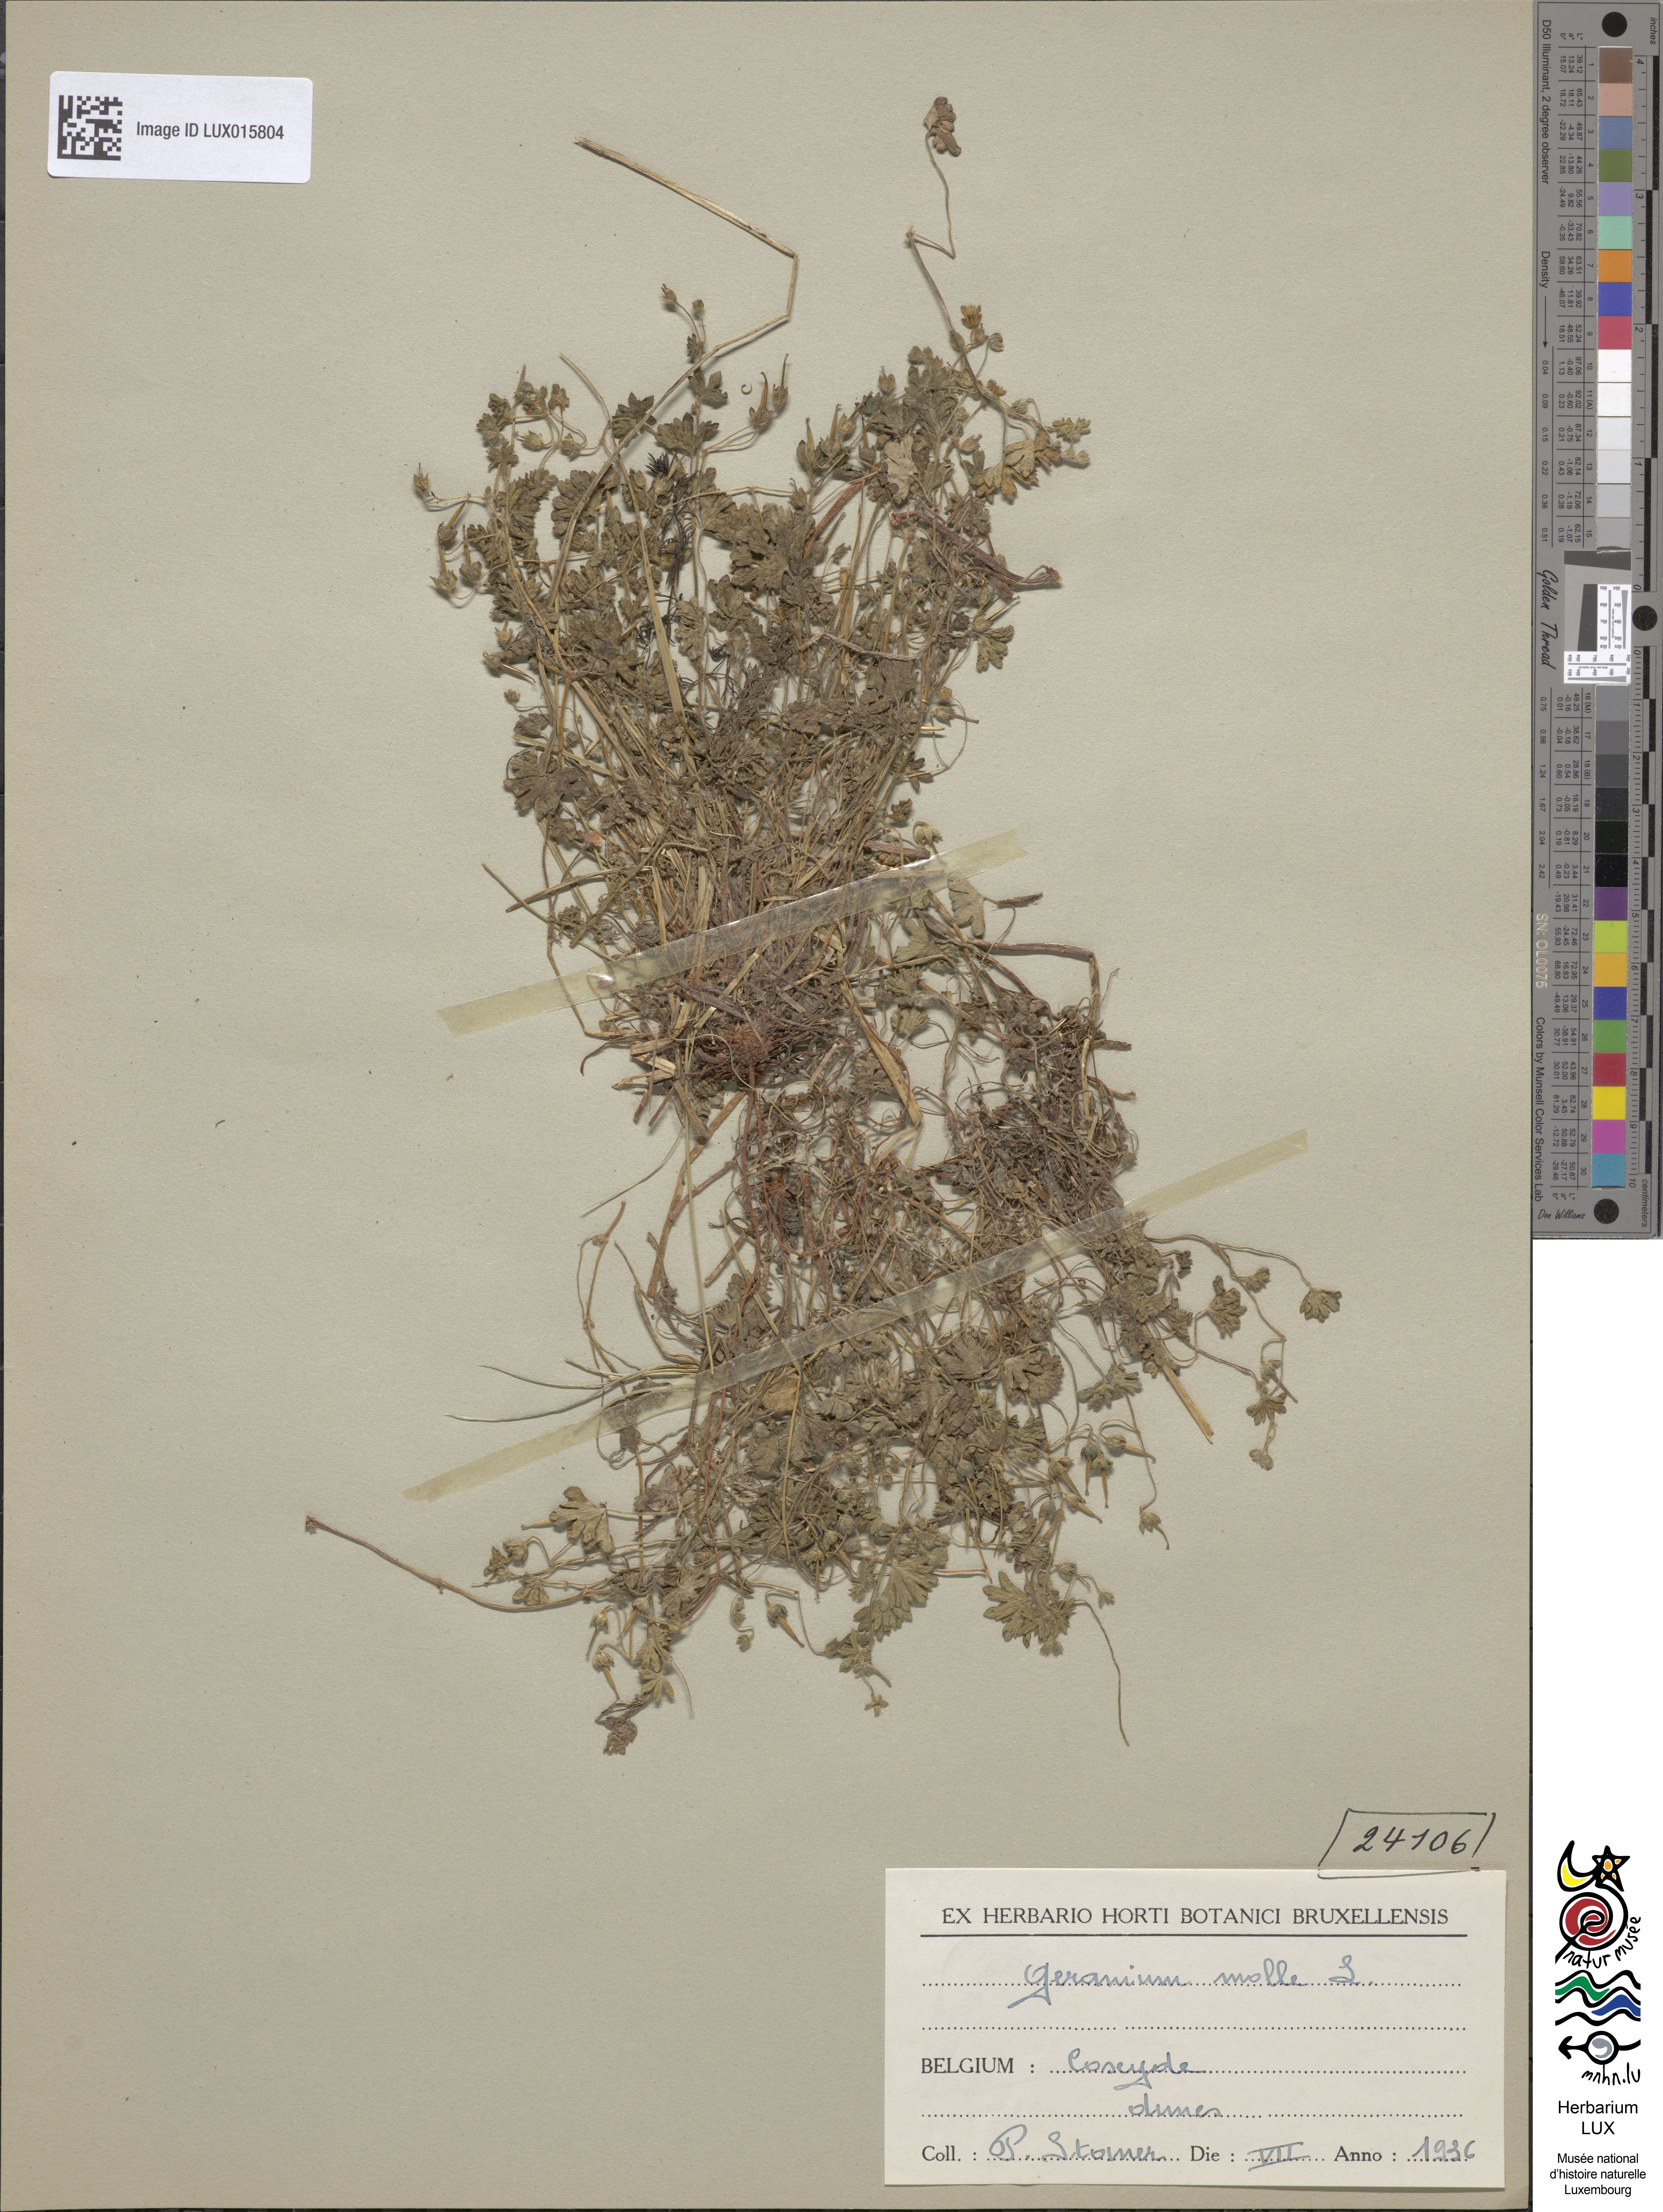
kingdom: Plantae
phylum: Tracheophyta
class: Magnoliopsida
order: Geraniales
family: Geraniaceae
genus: Geranium
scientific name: Geranium molle
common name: Dove's-foot crane's-bill
